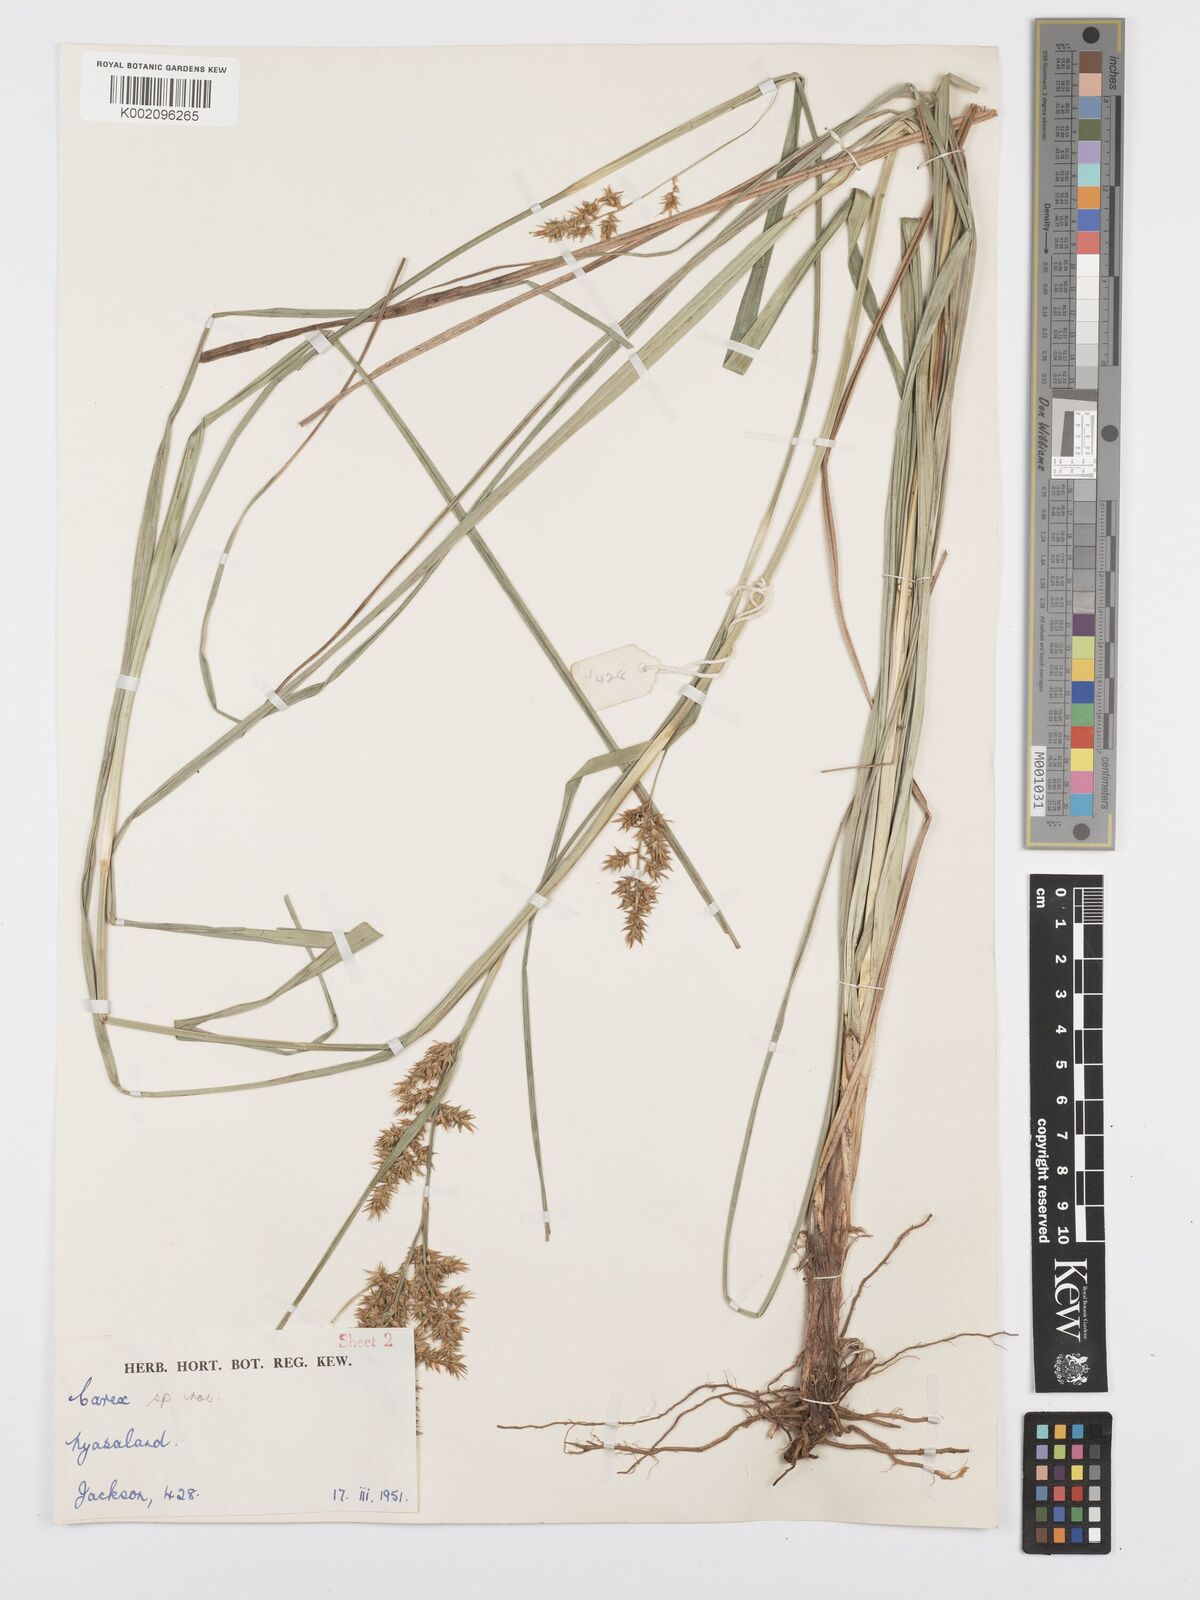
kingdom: Plantae
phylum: Tracheophyta
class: Liliopsida
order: Poales
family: Cyperaceae
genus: Carex
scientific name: Carex spicatopaniculata
